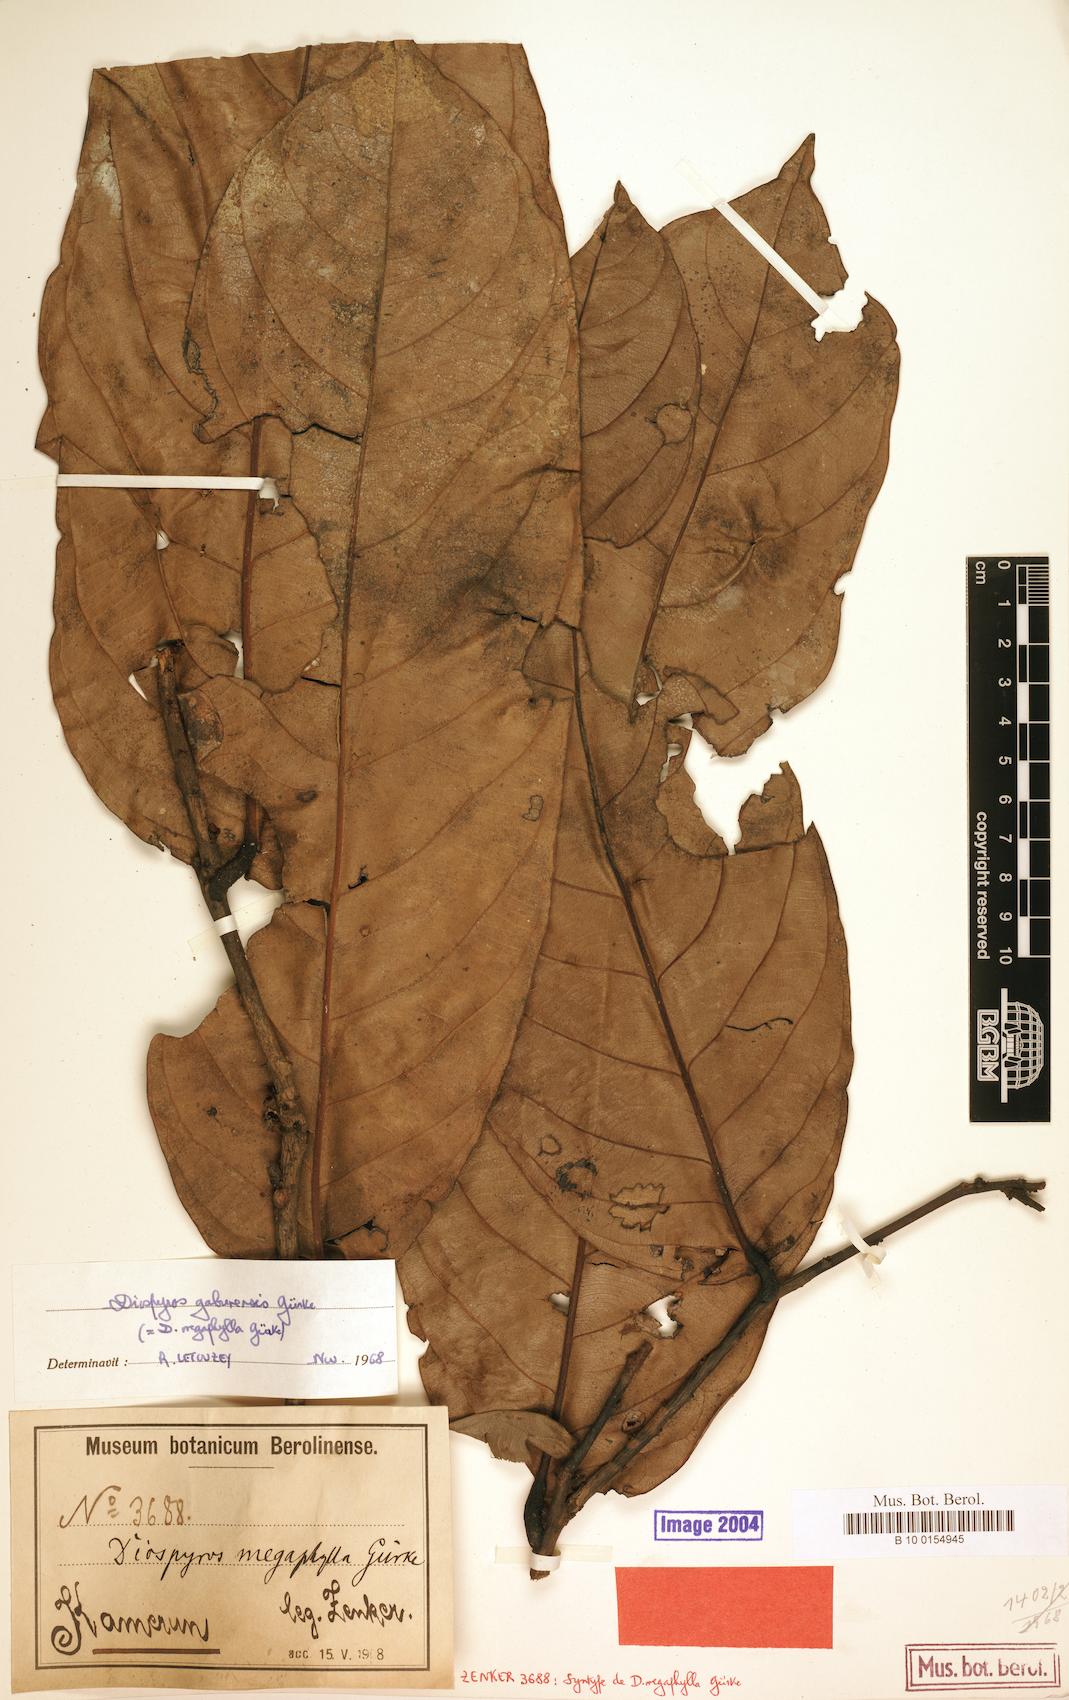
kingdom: Plantae
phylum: Tracheophyta
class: Magnoliopsida
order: Ericales
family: Ebenaceae
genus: Diospyros
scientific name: Diospyros gabunensis
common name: Flint bark tree
